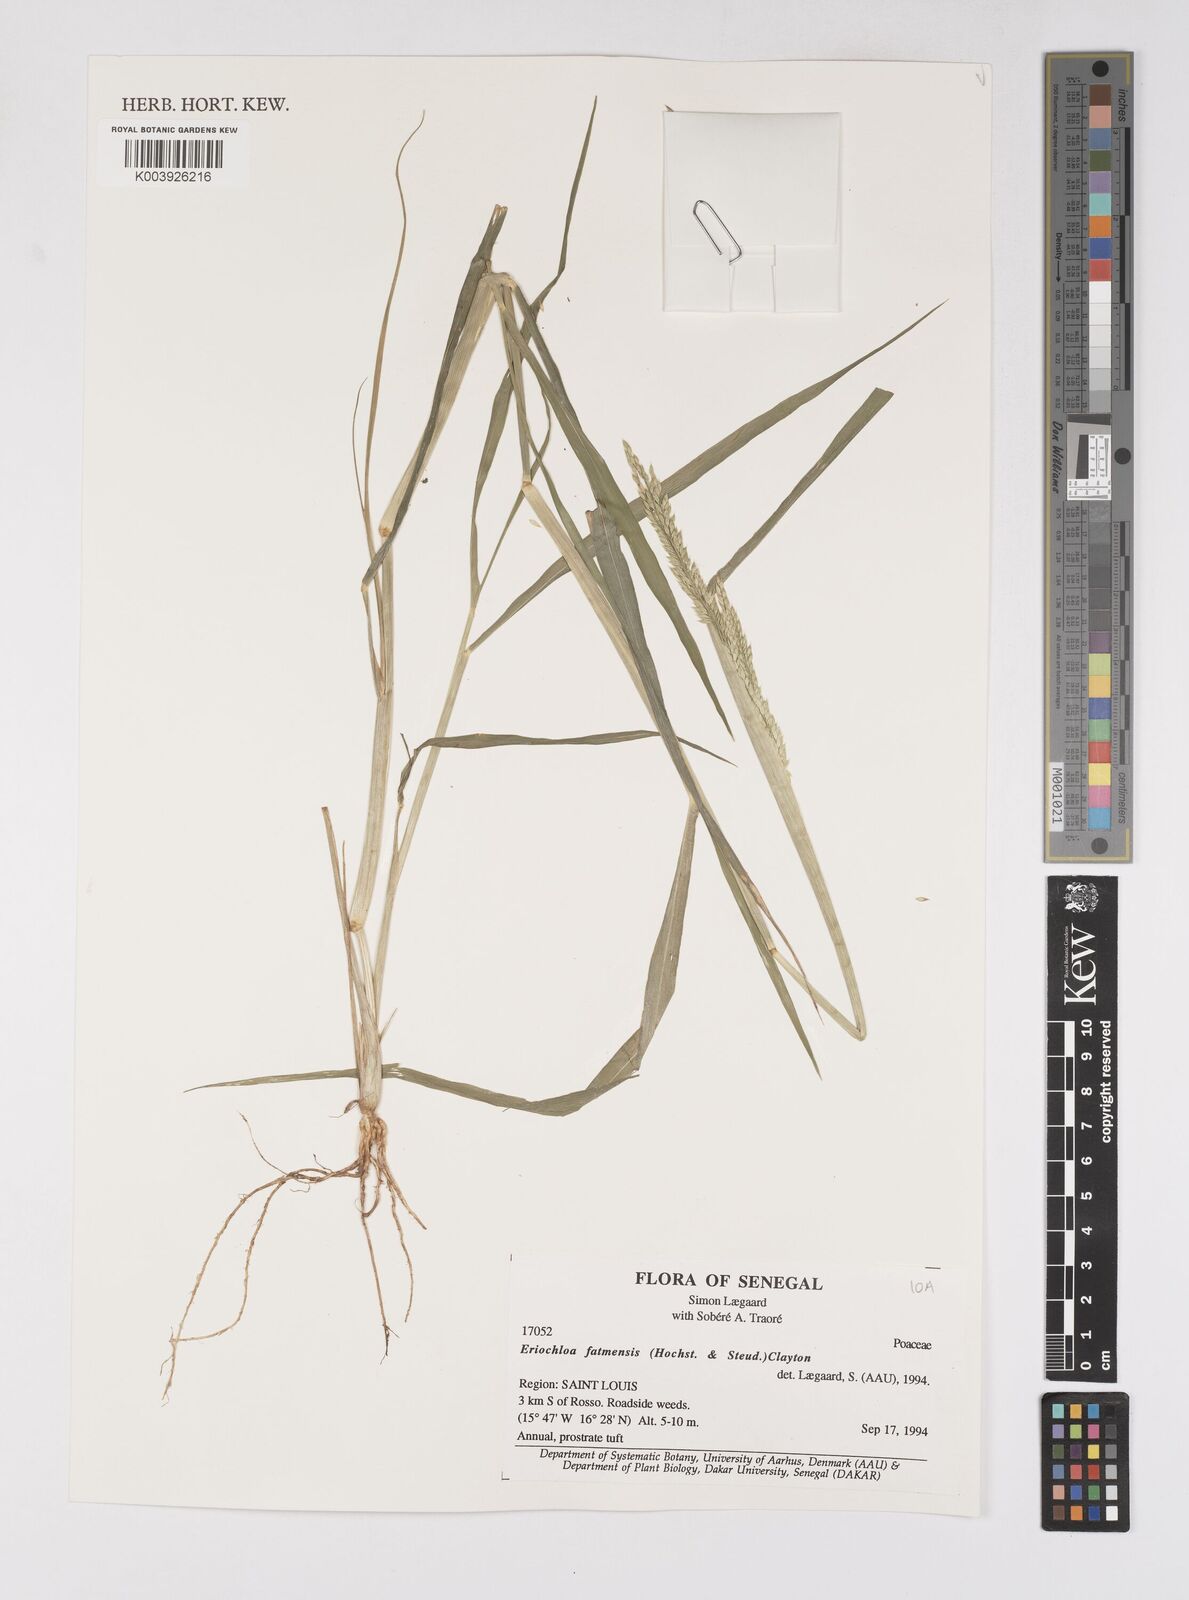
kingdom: Plantae
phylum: Tracheophyta
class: Liliopsida
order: Poales
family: Poaceae
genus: Eriochloa
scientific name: Eriochloa barbatus
